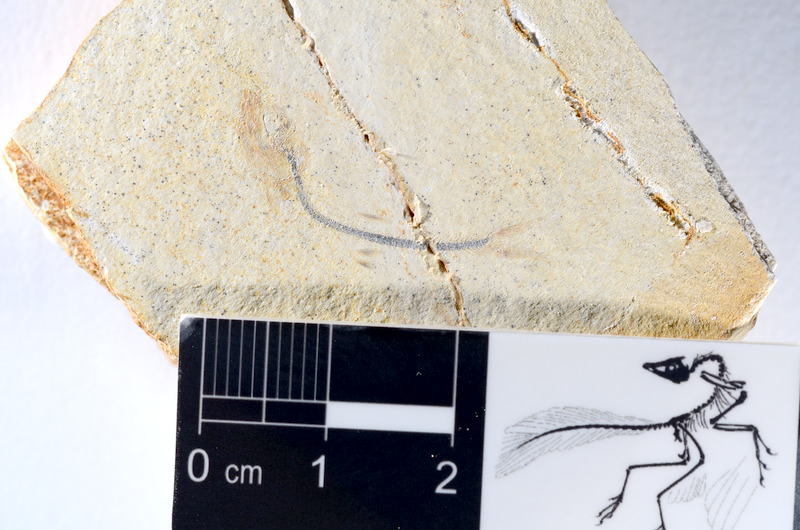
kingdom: Animalia
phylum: Chordata
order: Salmoniformes
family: Orthogonikleithridae
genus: Orthogonikleithrus
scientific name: Orthogonikleithrus hoelli
